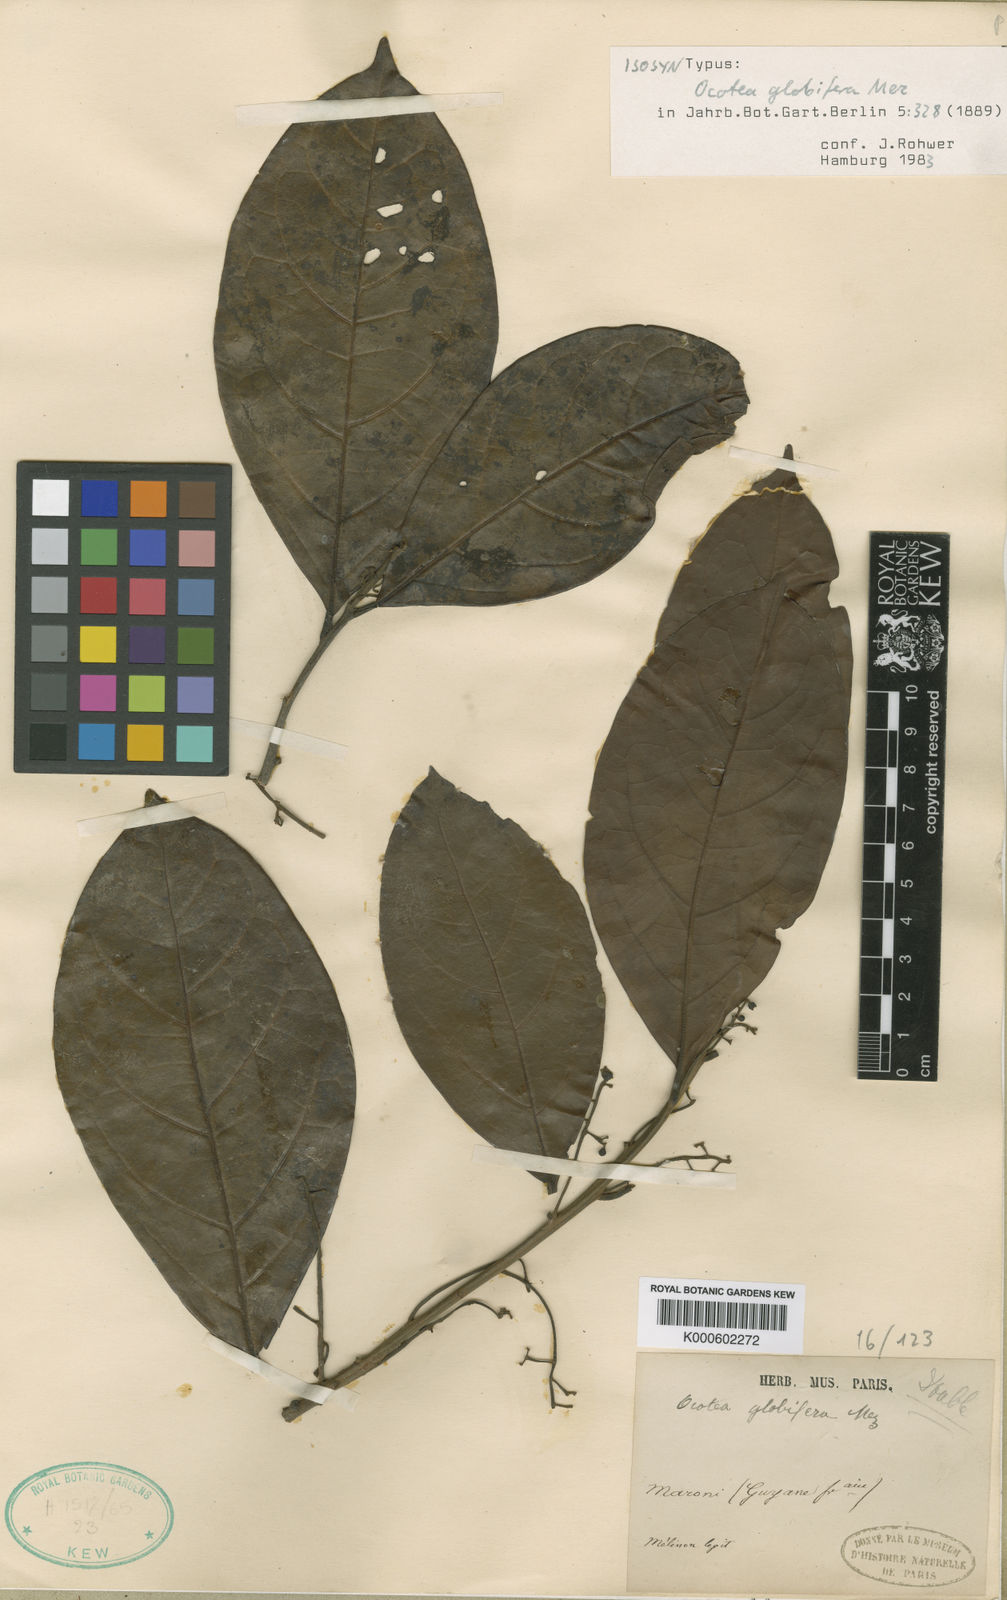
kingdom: Plantae
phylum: Tracheophyta
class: Magnoliopsida
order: Laurales
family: Lauraceae
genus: Ocotea
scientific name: Ocotea splendens
